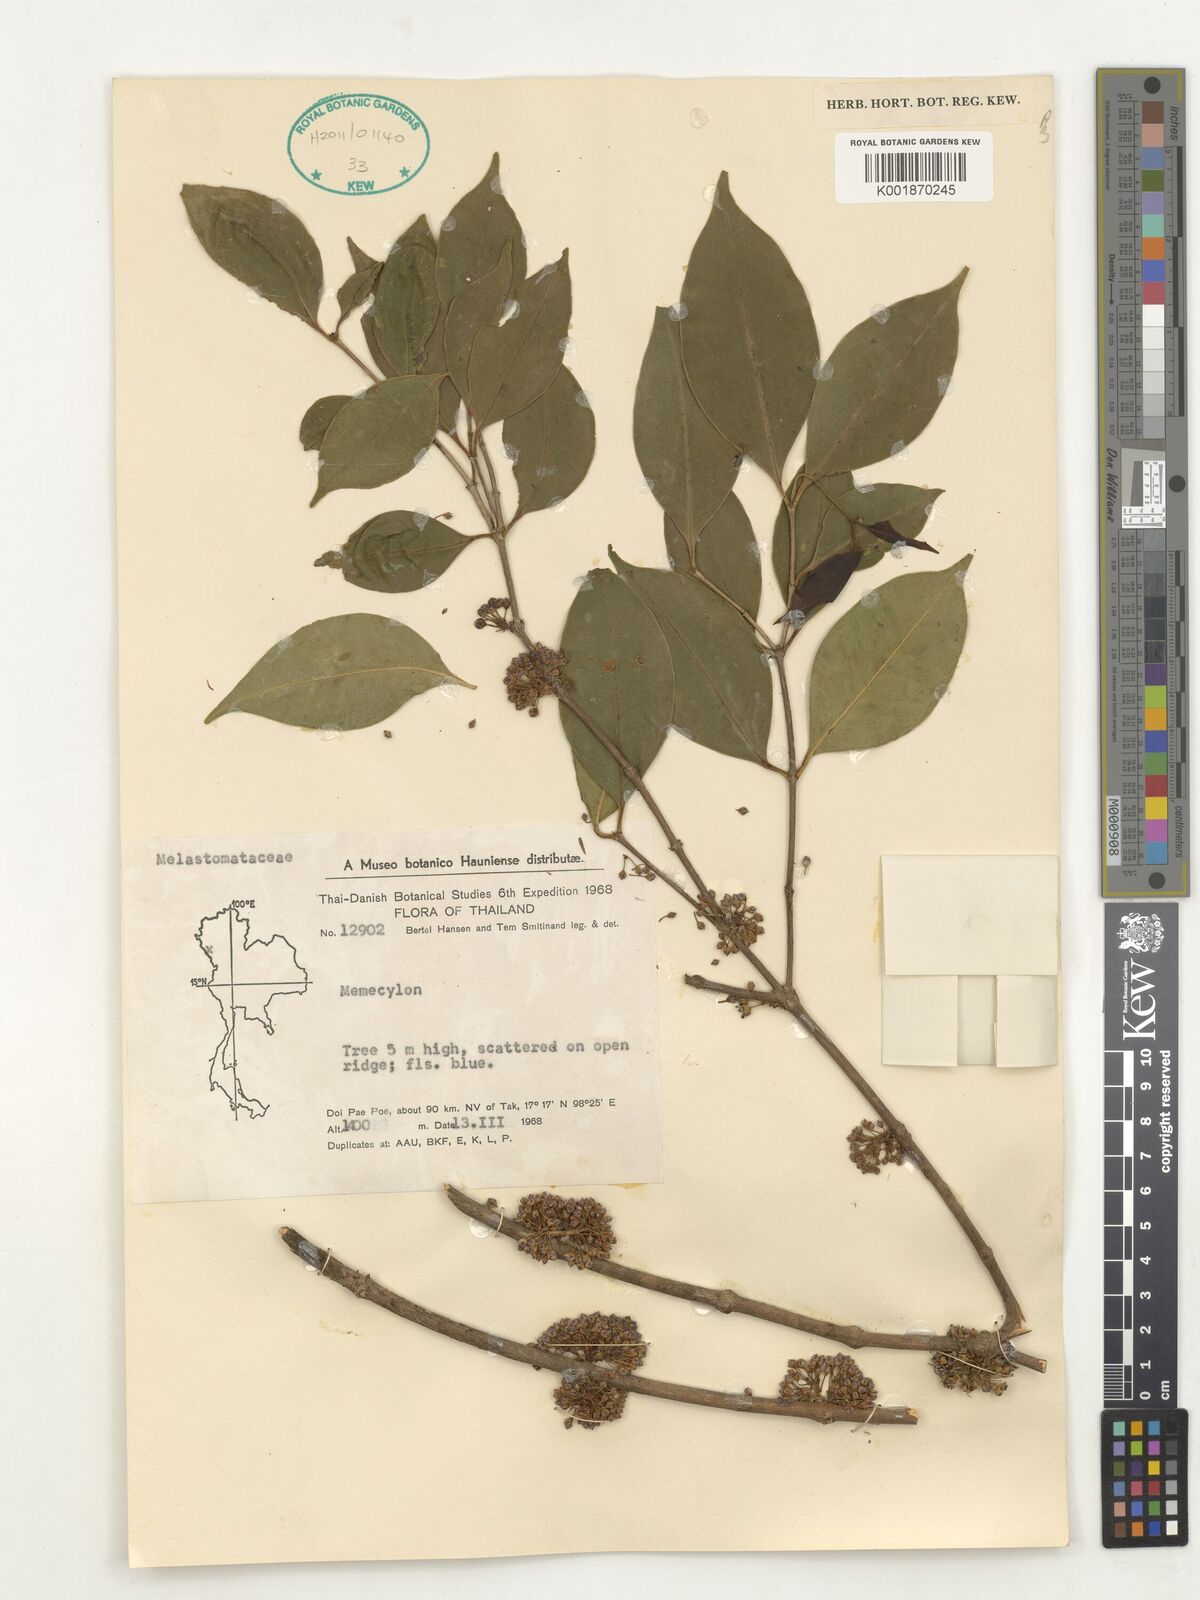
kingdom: Plantae
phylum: Tracheophyta
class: Magnoliopsida
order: Myrtales
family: Melastomataceae
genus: Memecylon
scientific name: Memecylon
